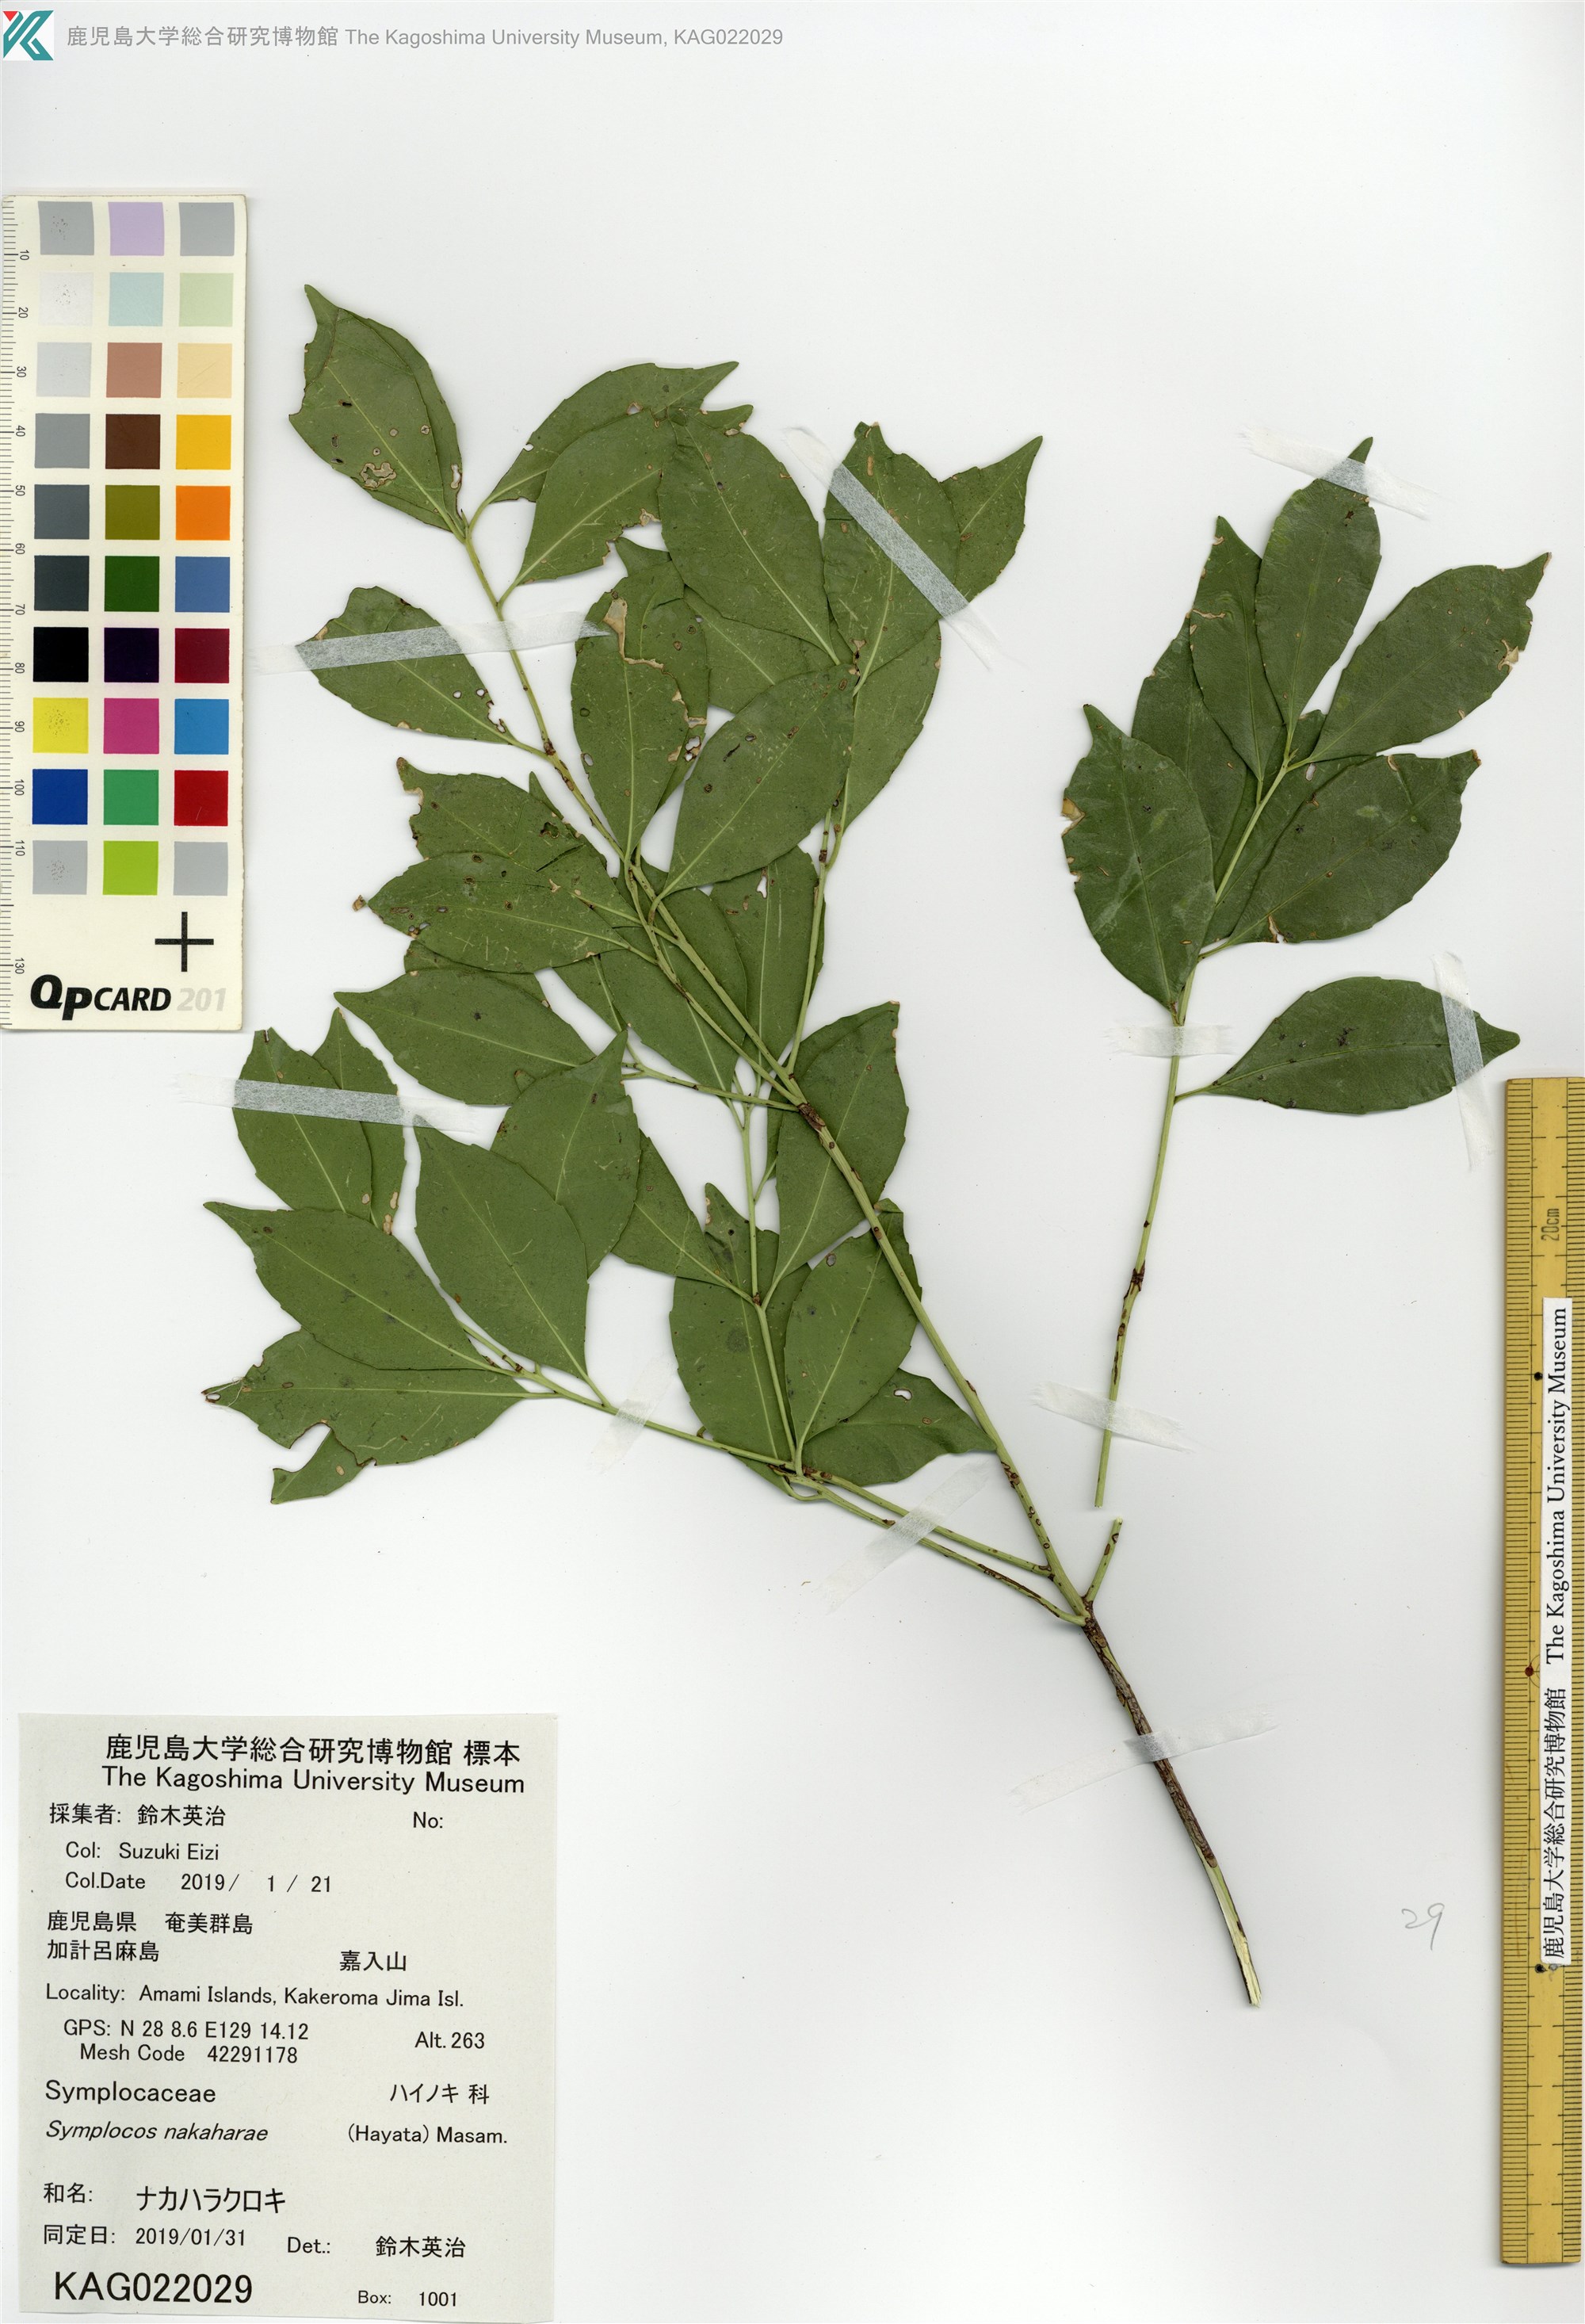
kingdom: Plantae
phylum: Tracheophyta
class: Magnoliopsida
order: Ericales
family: Symplocaceae
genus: Symplocos
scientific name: Symplocos nakaharae
